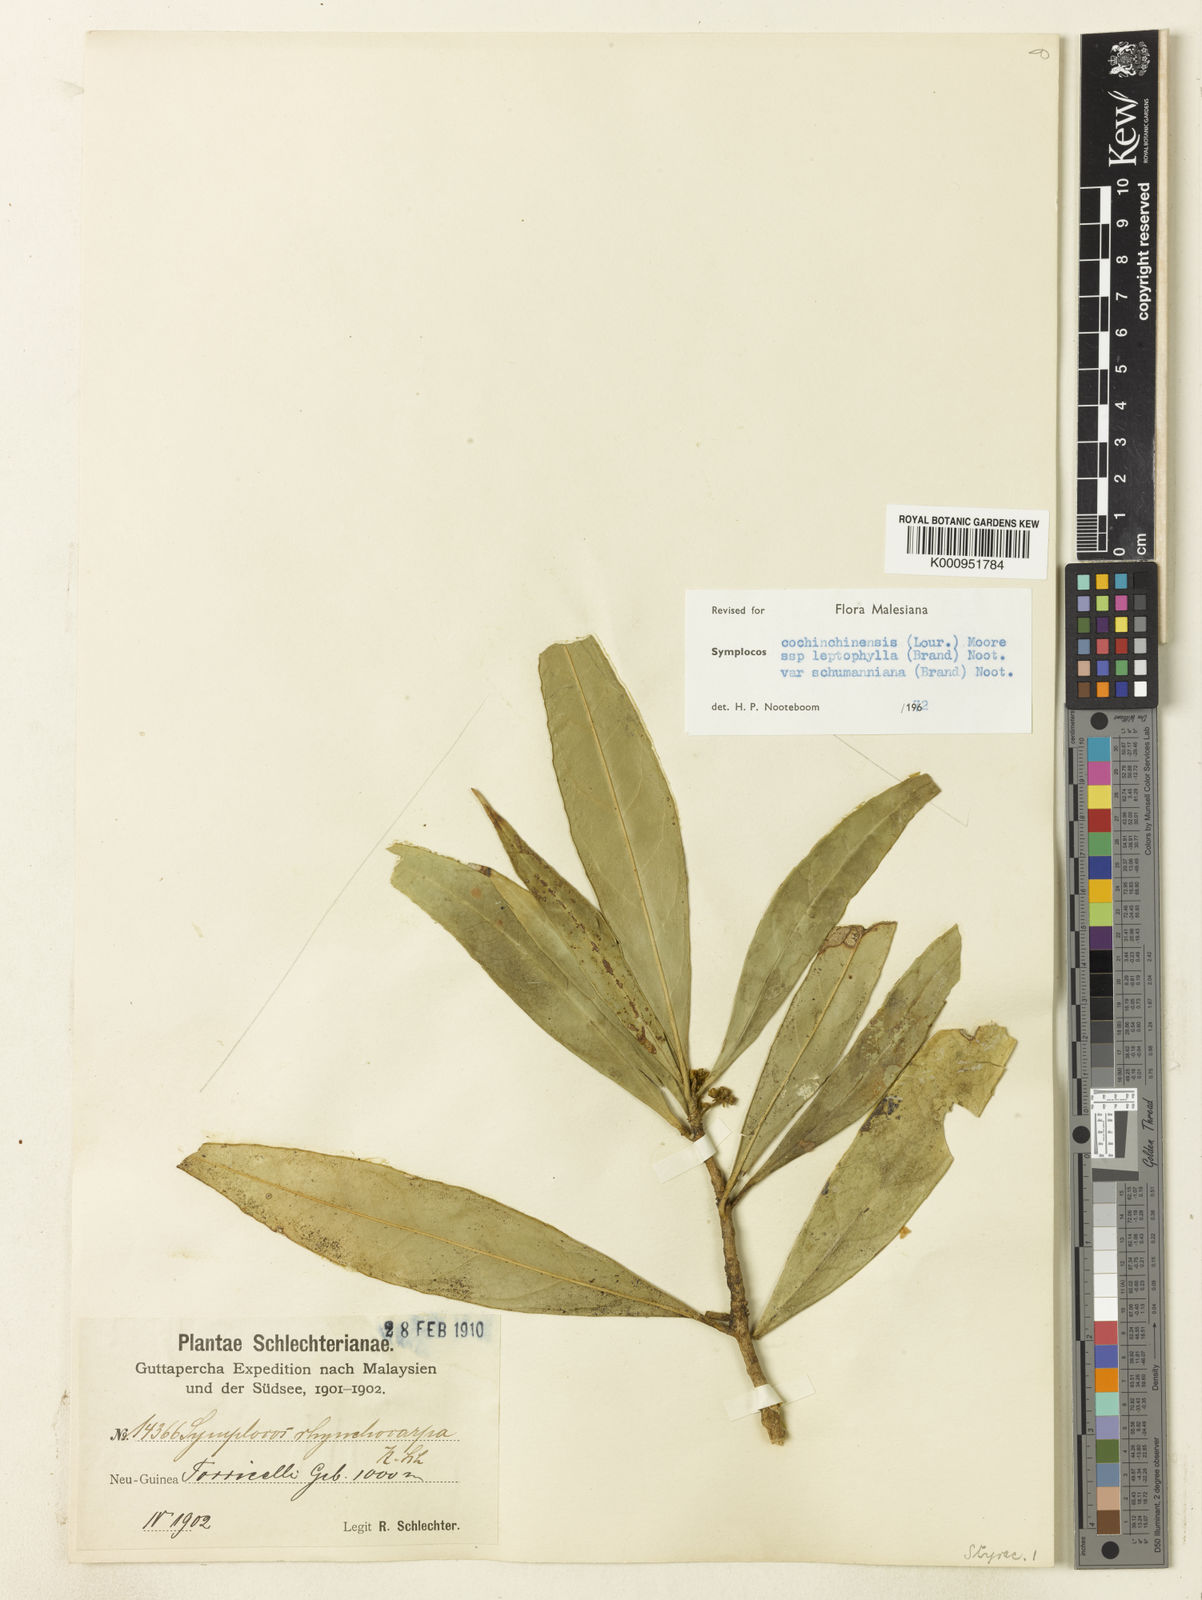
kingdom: Plantae
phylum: Tracheophyta
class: Magnoliopsida
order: Ericales
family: Symplocaceae
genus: Symplocos
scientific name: Symplocos cochinchinensis
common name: Buff hazelwood
